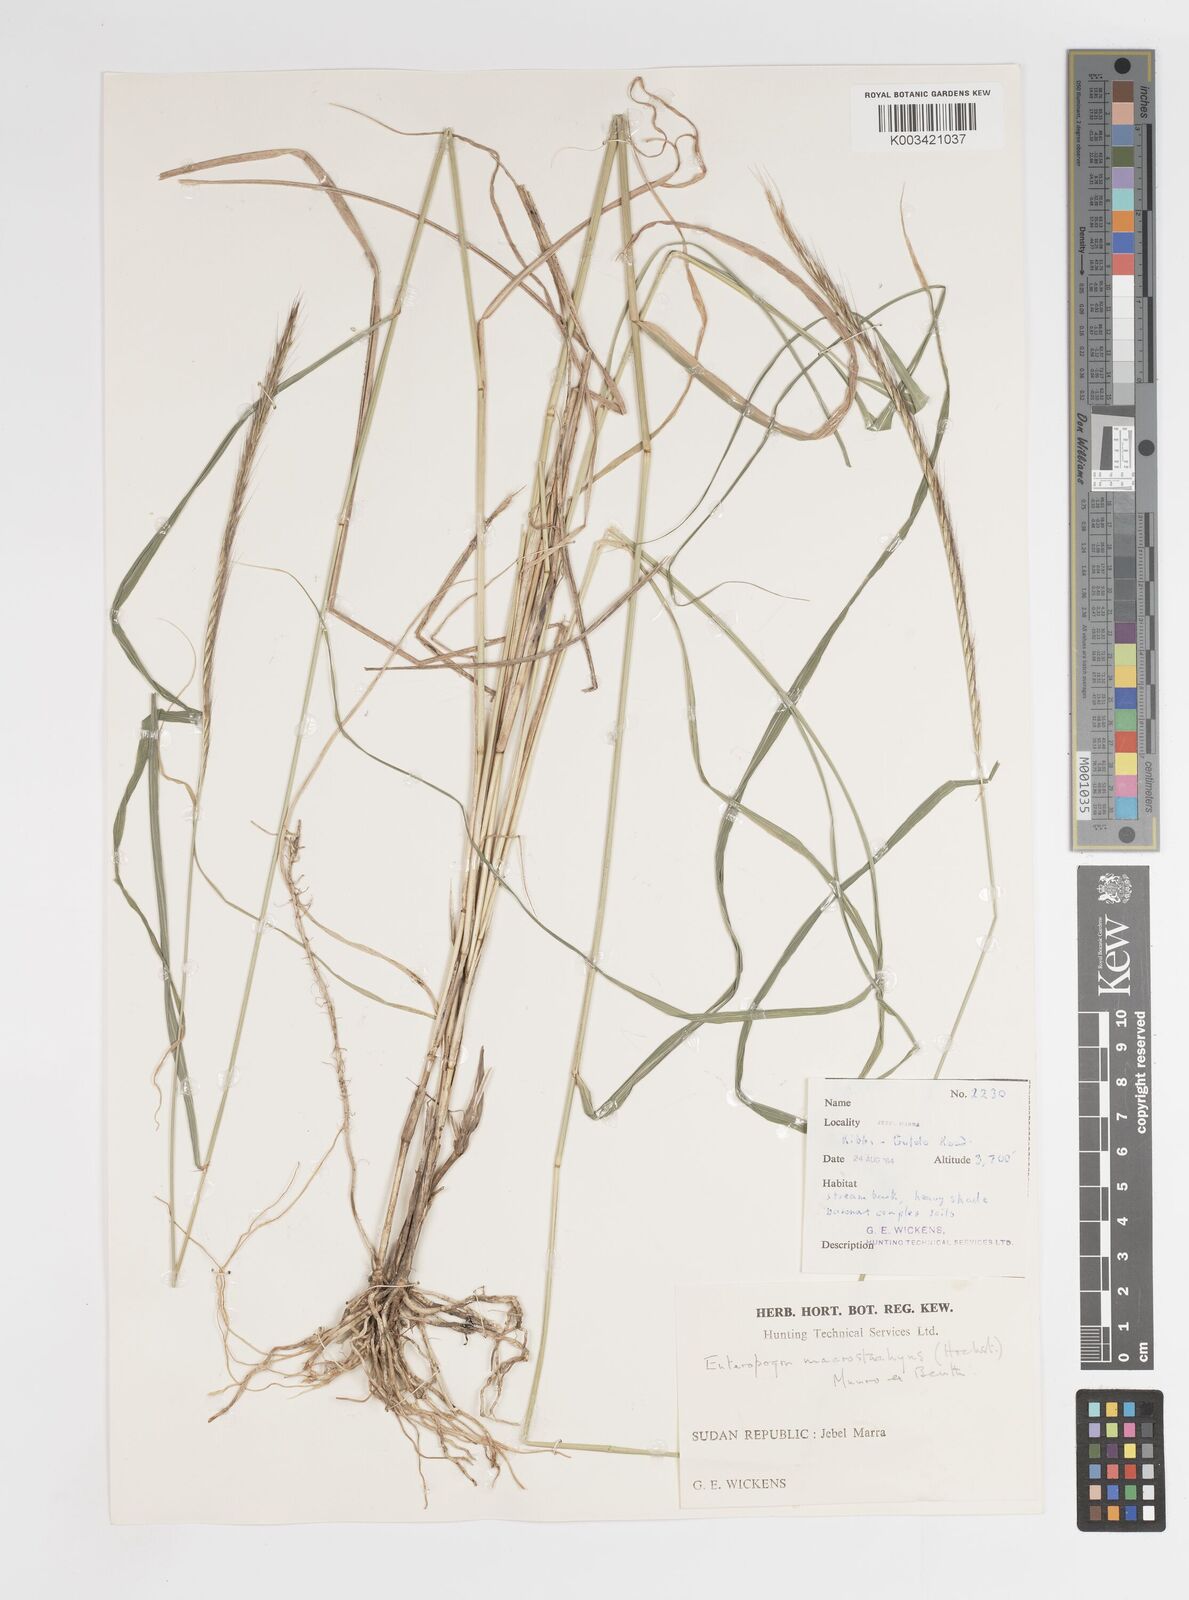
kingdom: Plantae
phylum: Tracheophyta
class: Liliopsida
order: Poales
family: Poaceae
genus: Enteropogon
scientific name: Enteropogon macrostachyus
